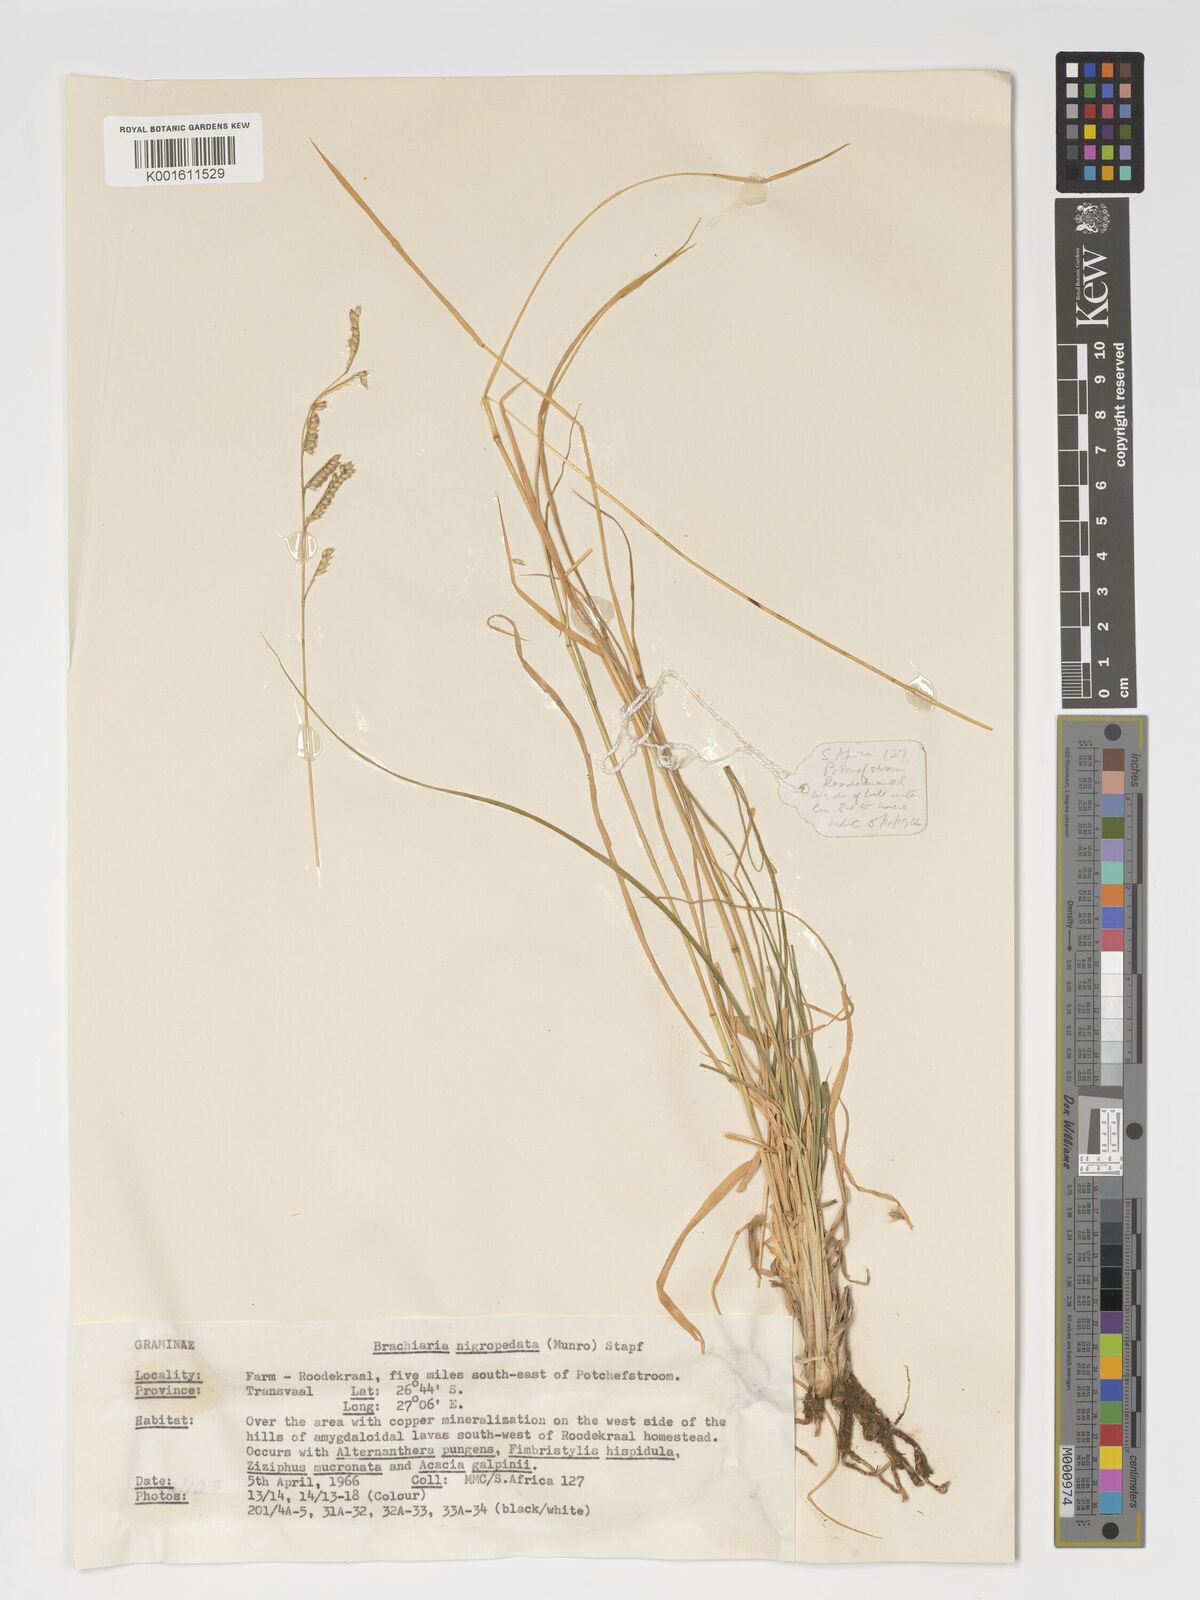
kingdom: Plantae
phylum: Tracheophyta
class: Liliopsida
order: Poales
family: Poaceae
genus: Urochloa
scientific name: Urochloa nigropedata
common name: Spotted signal grass
